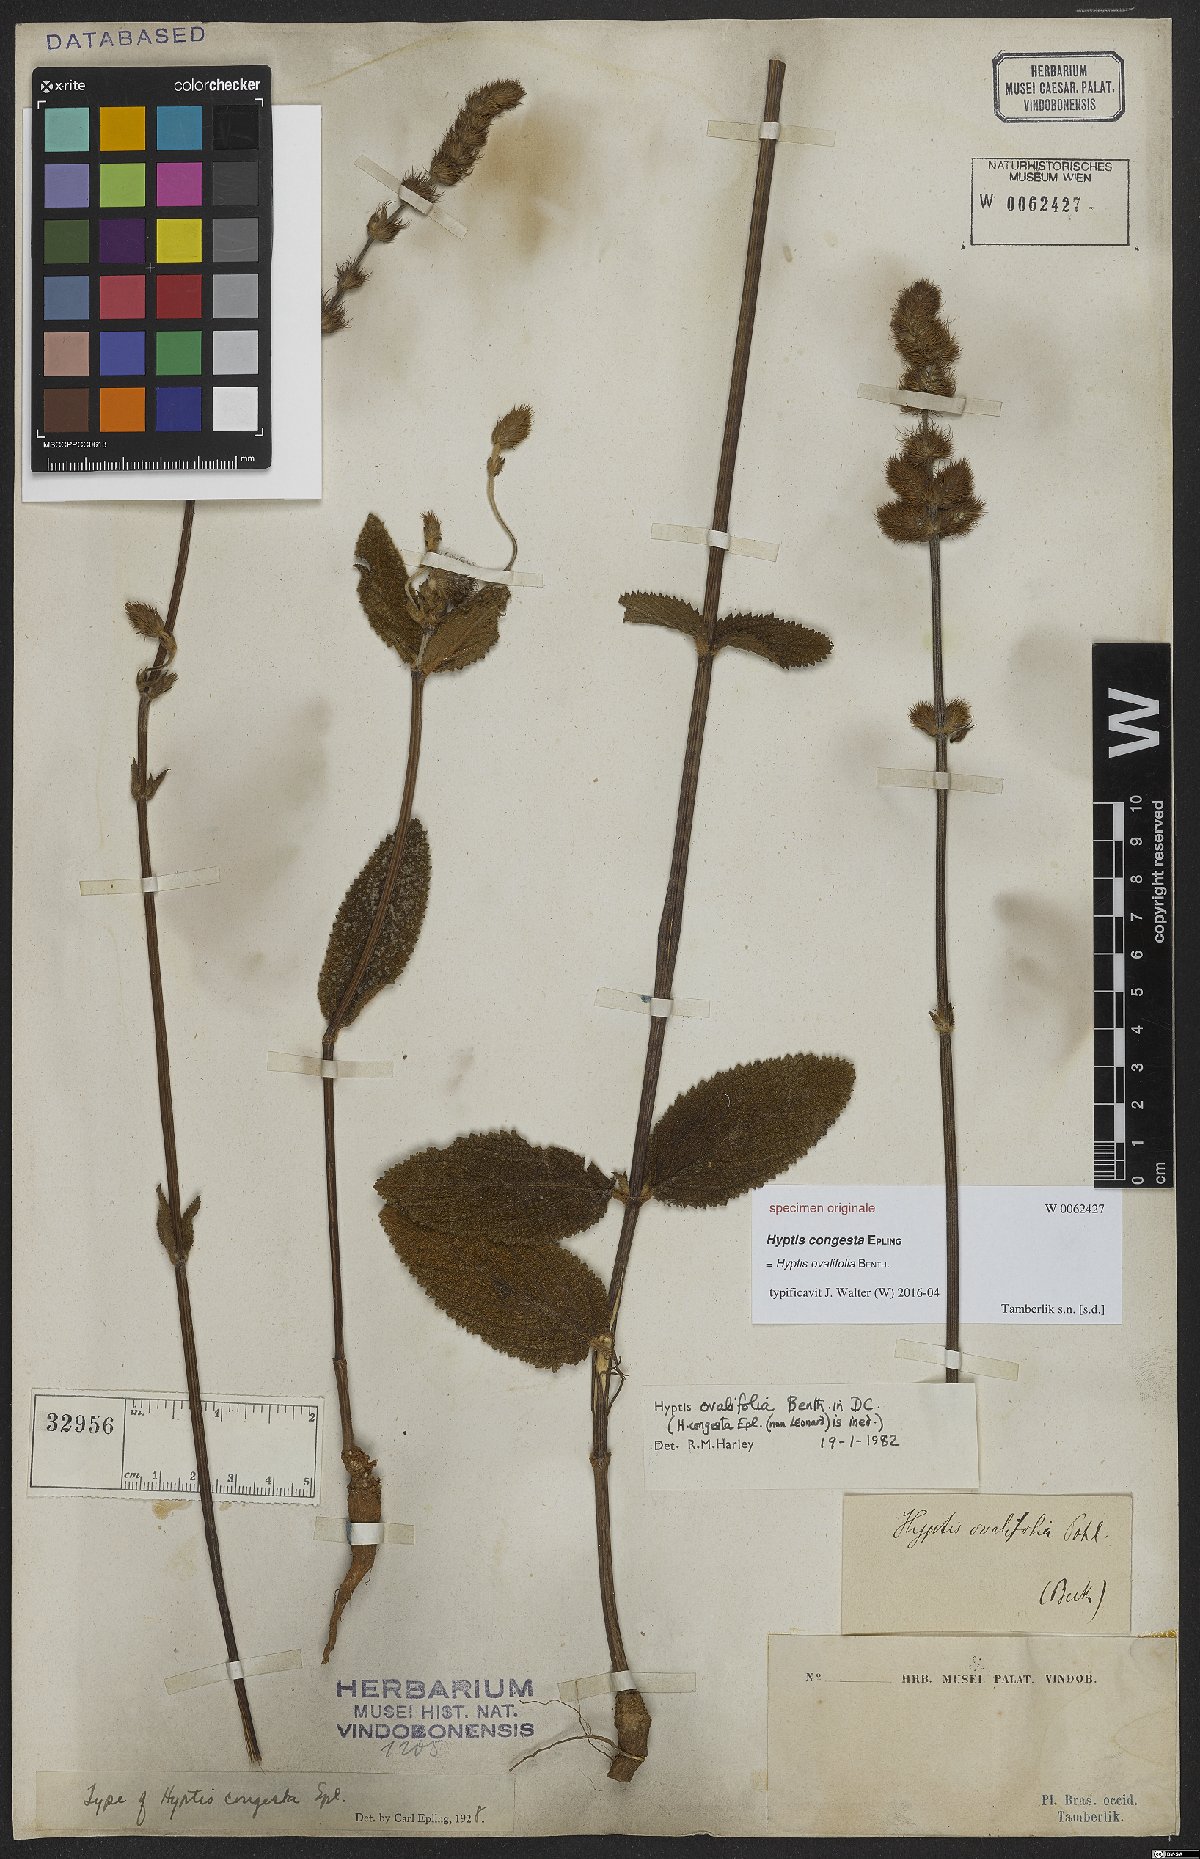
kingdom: Plantae
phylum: Tracheophyta
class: Magnoliopsida
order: Lamiales
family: Lamiaceae
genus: Mesosphaerum
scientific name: Mesosphaerum suaveolens
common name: Pignut
